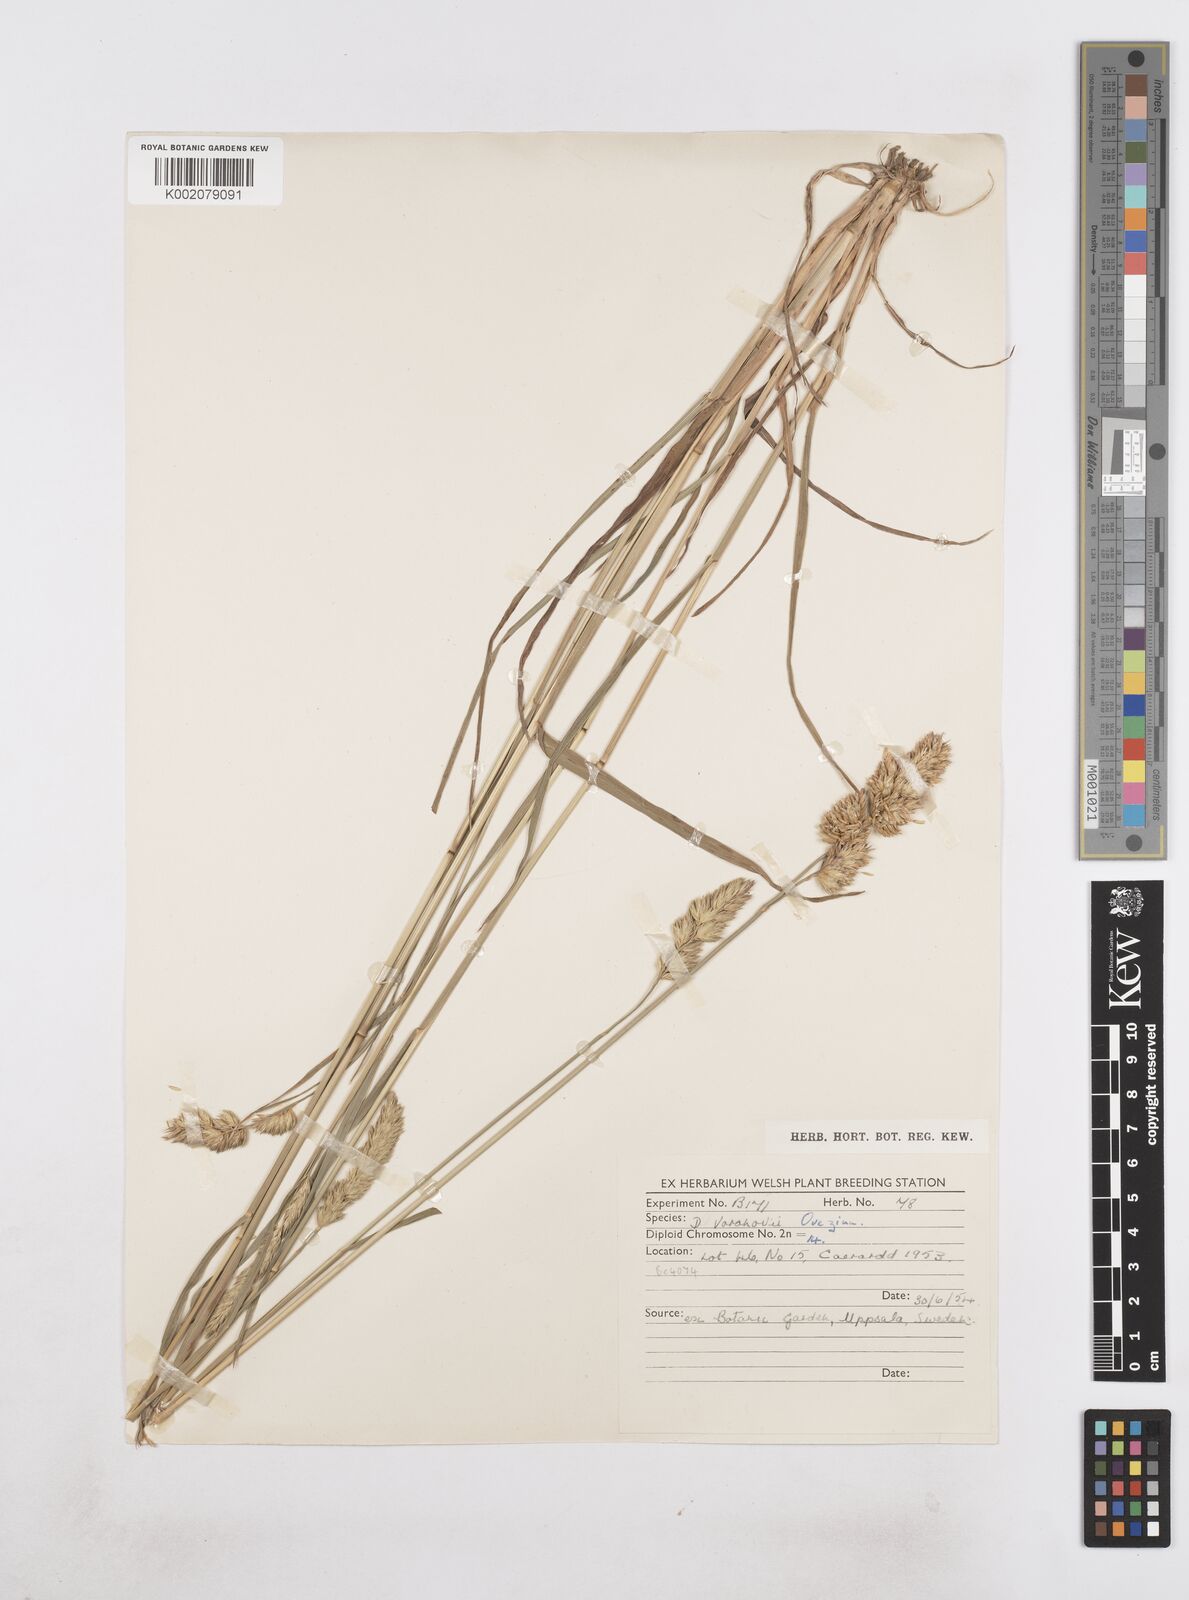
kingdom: Plantae
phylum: Tracheophyta
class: Liliopsida
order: Poales
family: Poaceae
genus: Dactylis
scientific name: Dactylis glomerata
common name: Orchardgrass
